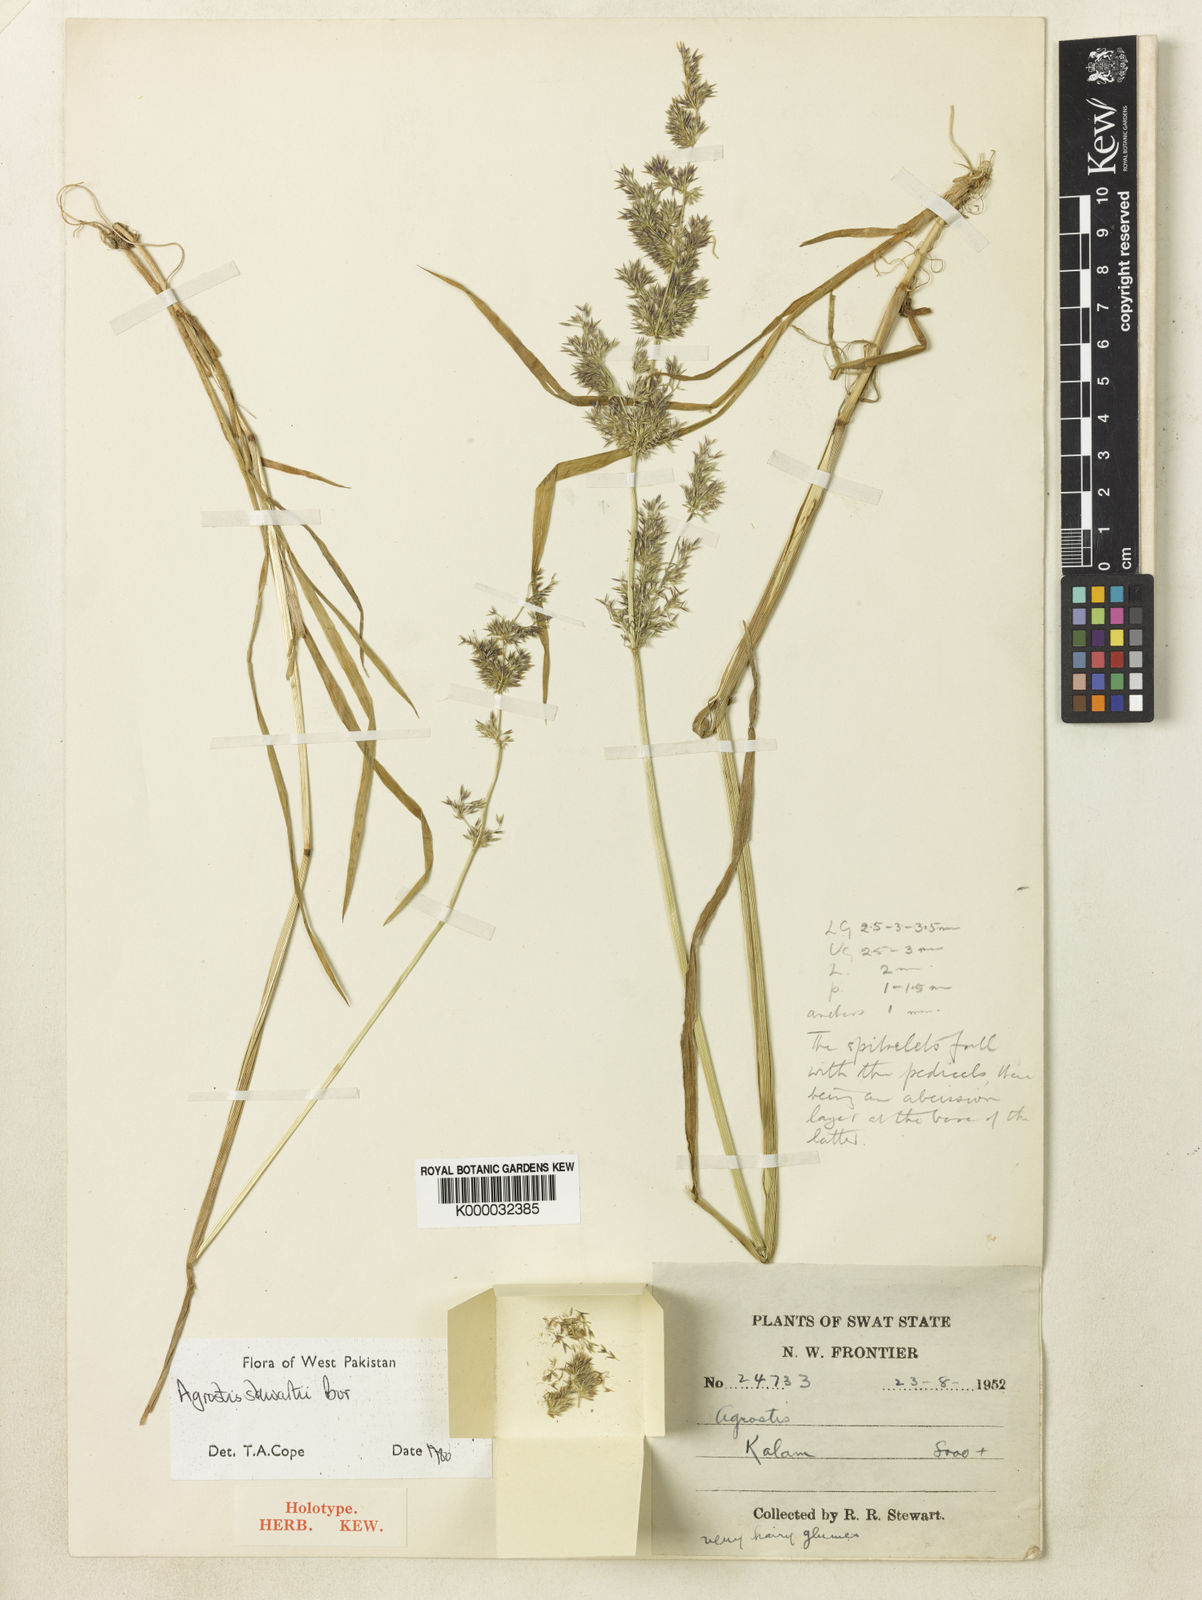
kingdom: Plantae
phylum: Tracheophyta
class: Liliopsida
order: Poales
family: Poaceae
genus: Polypogon
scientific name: Polypogon hissaricus
